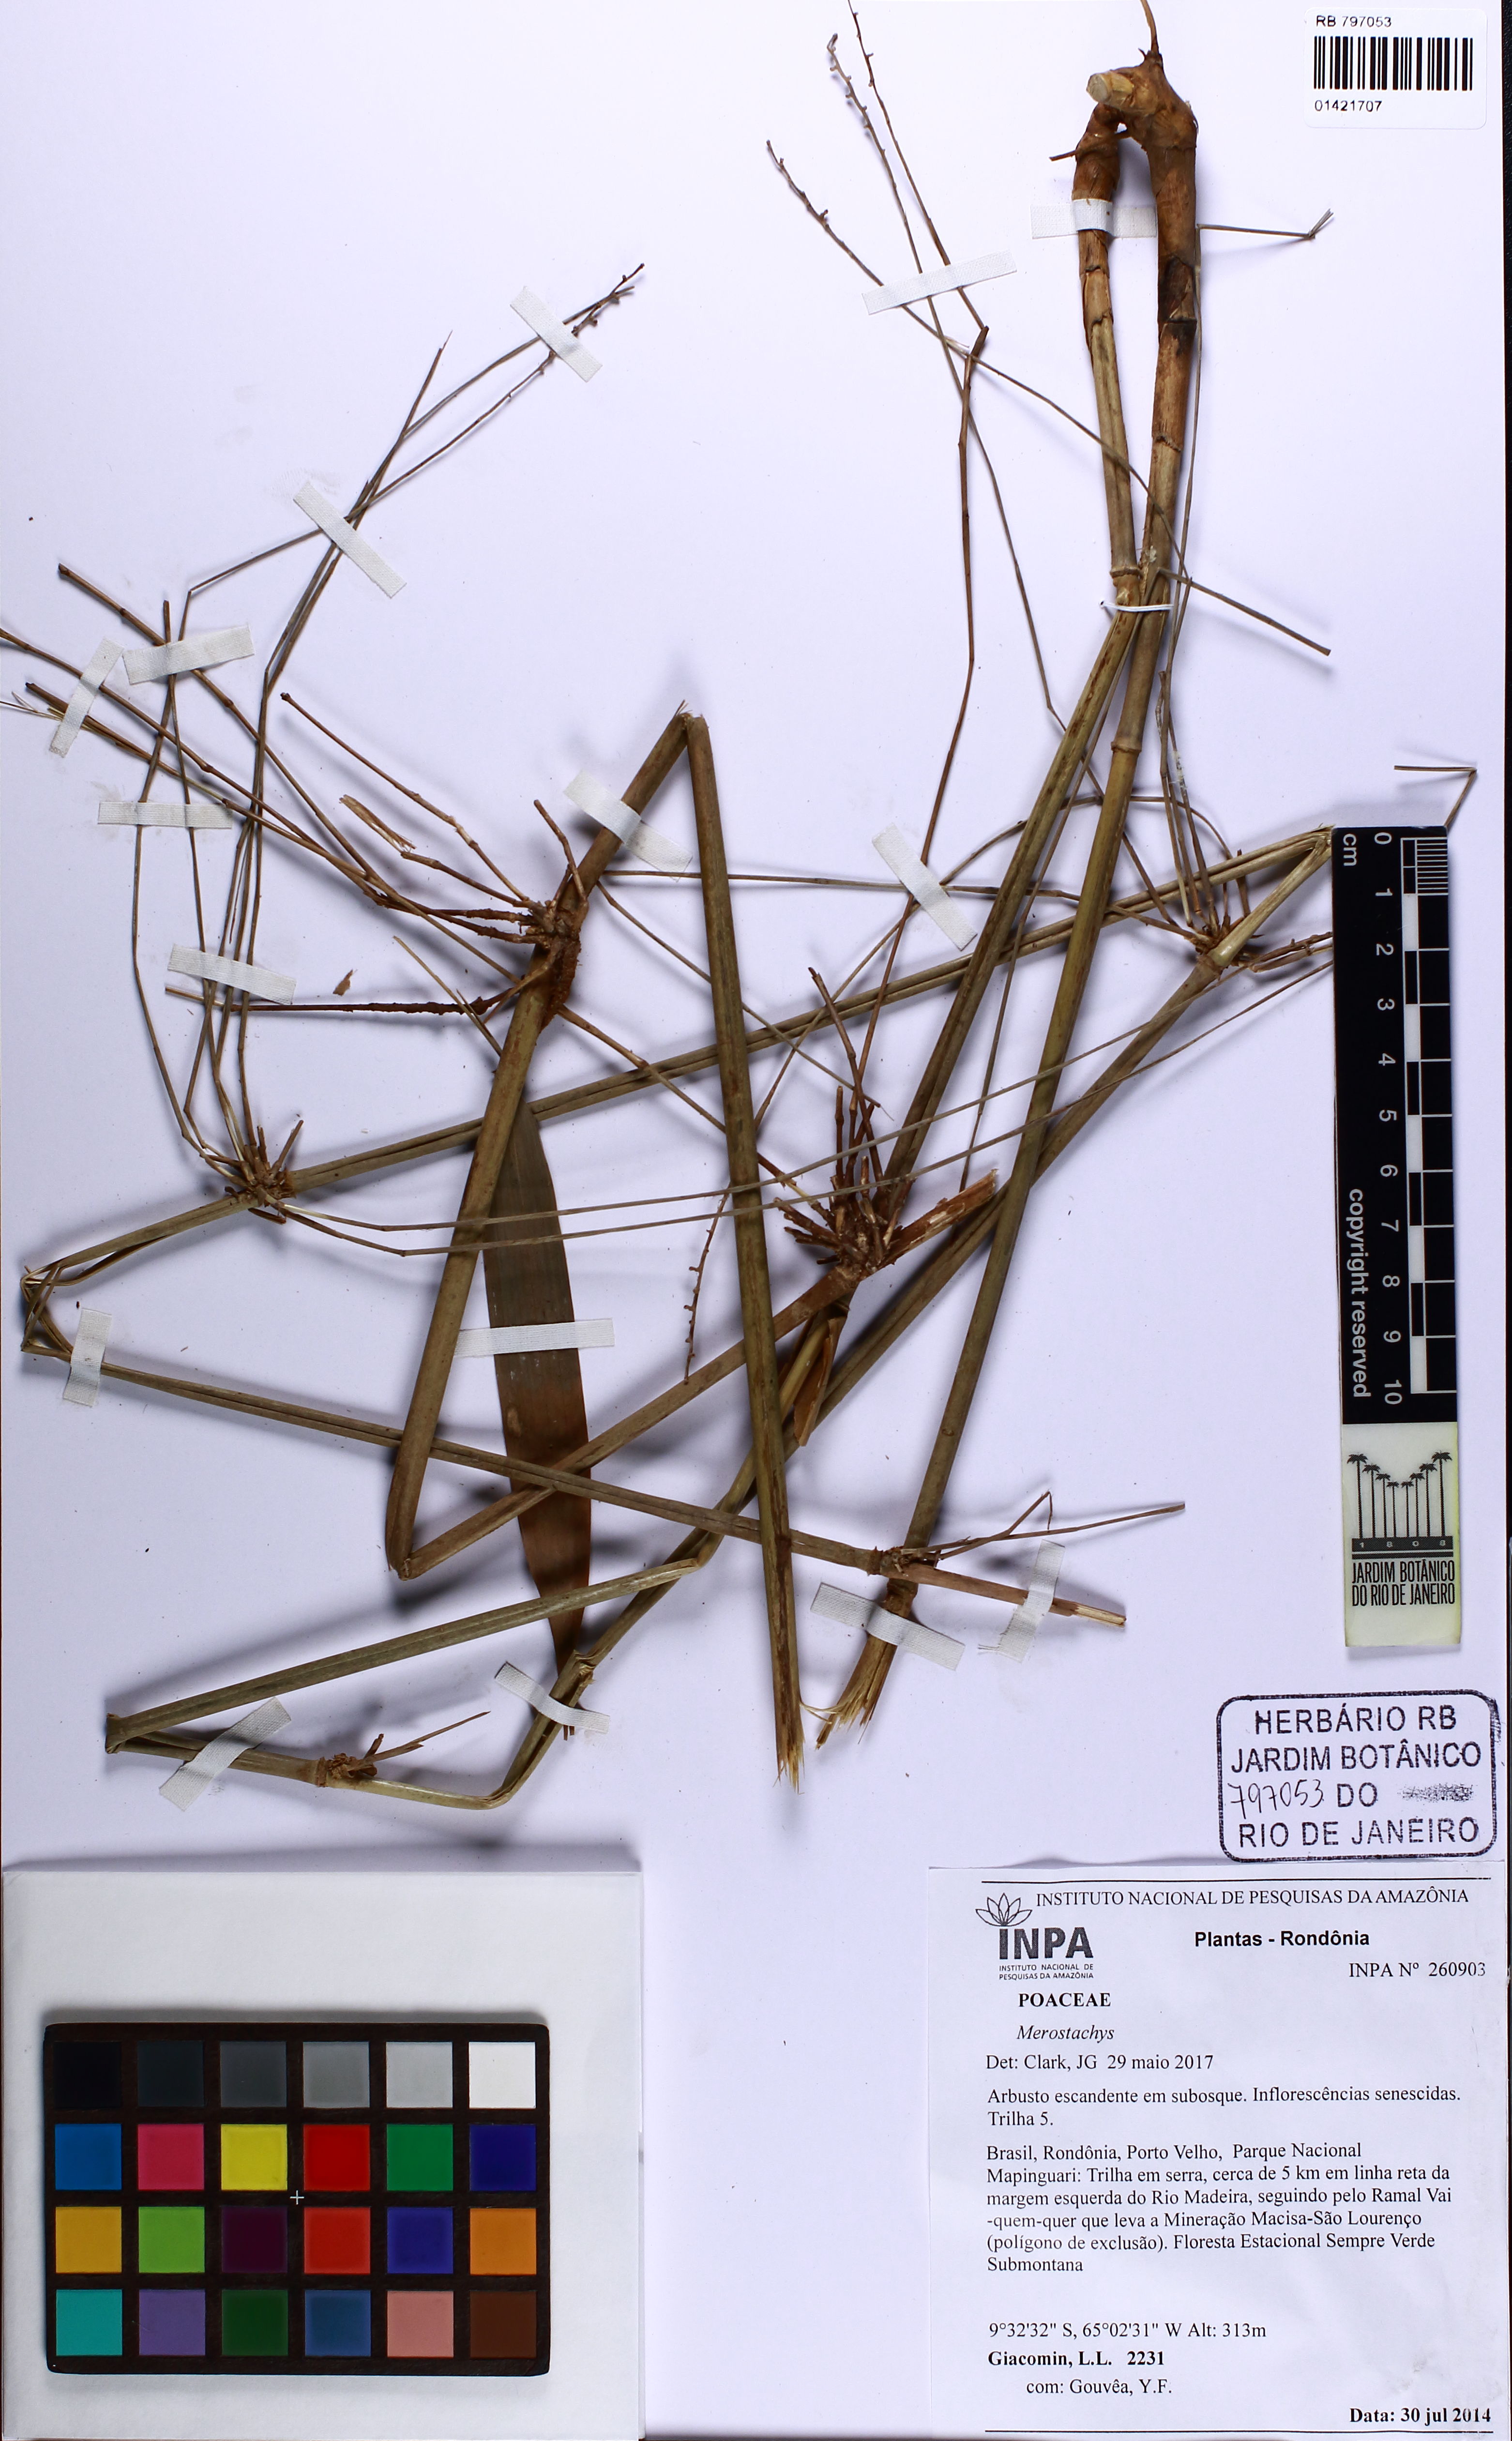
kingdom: Plantae
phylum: Tracheophyta
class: Liliopsida
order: Poales
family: Poaceae
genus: Merostachys
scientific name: Merostachys
